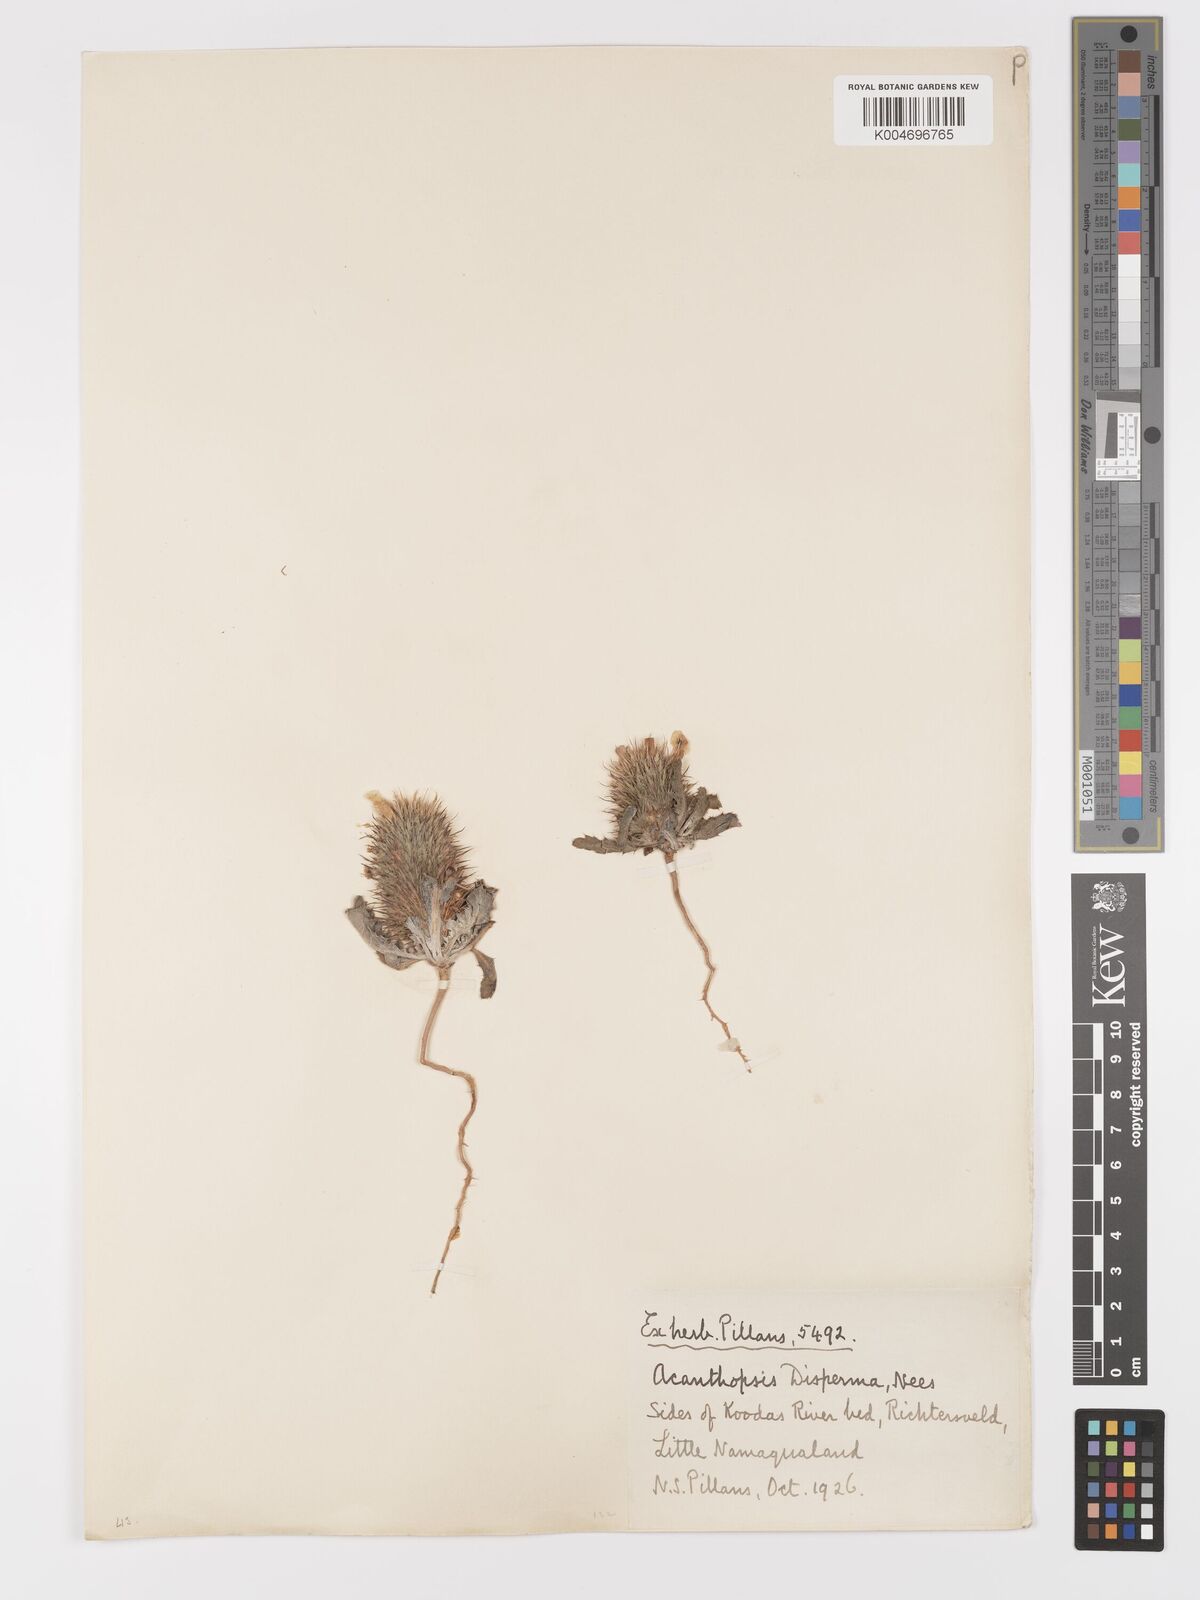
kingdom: Plantae
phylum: Tracheophyta
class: Magnoliopsida
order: Lamiales
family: Acanthaceae
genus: Acanthopsis
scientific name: Acanthopsis disperma
